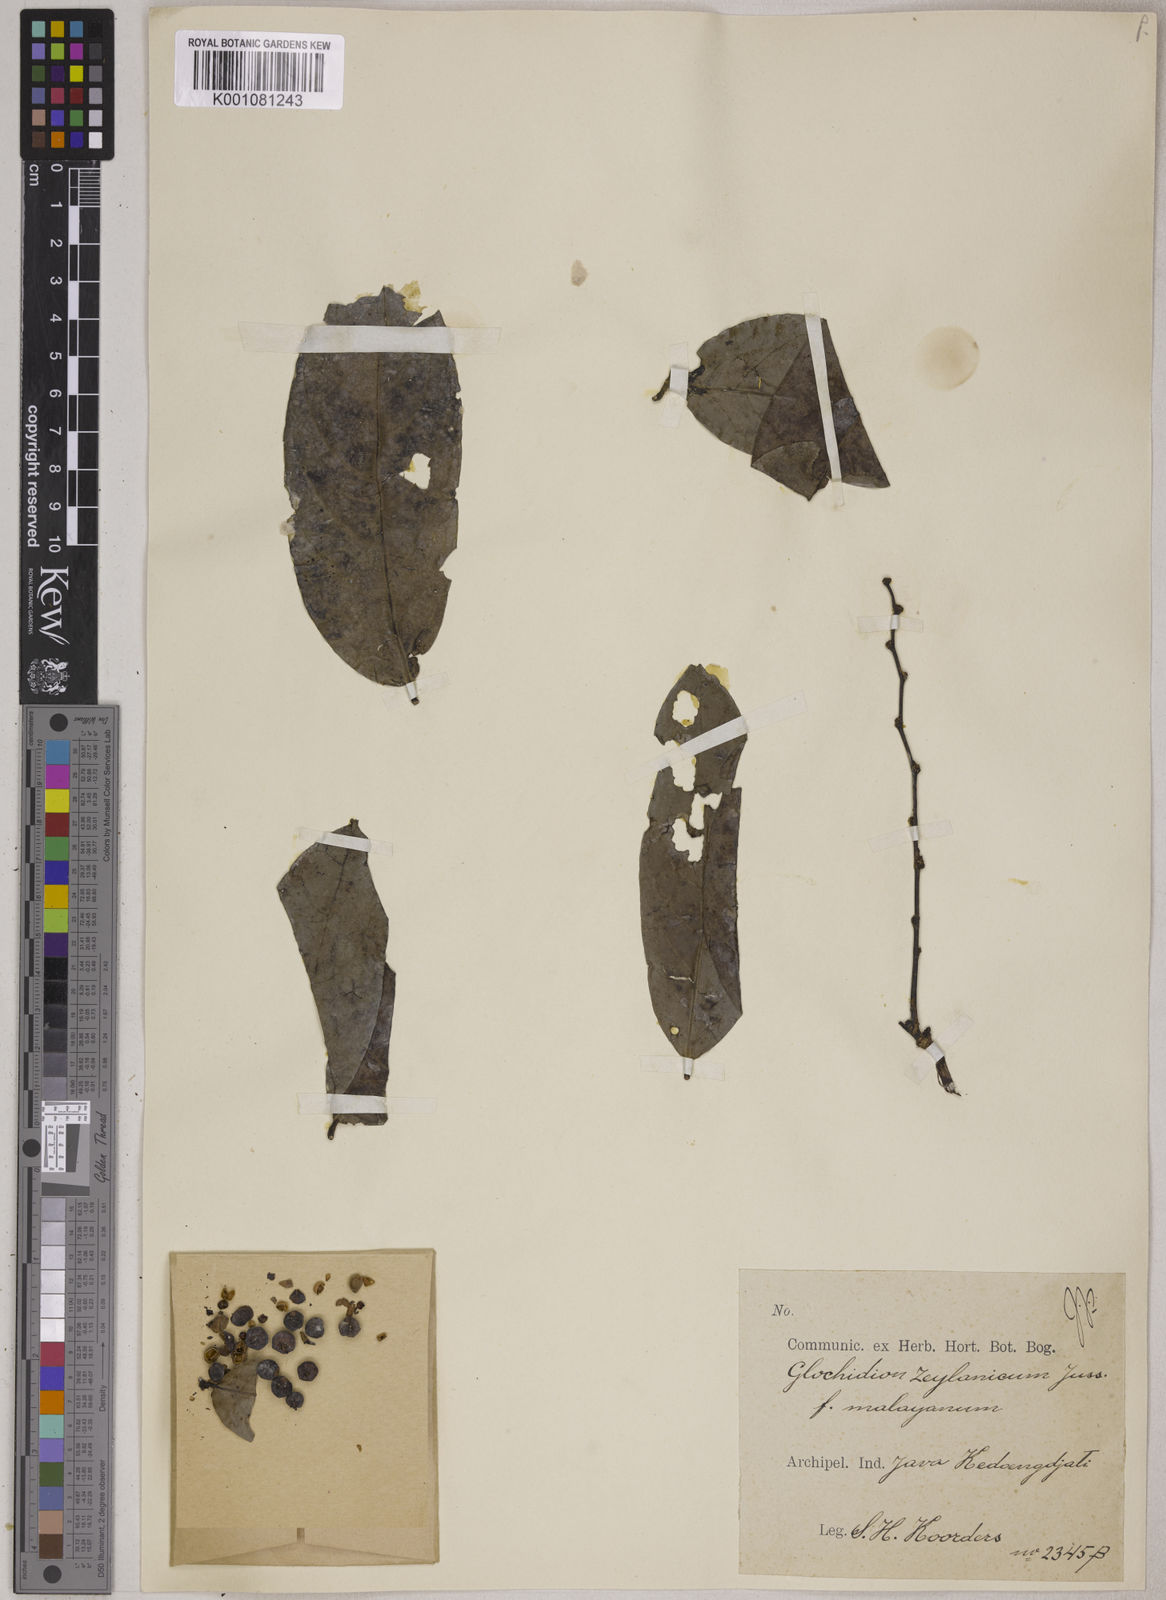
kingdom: Plantae
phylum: Tracheophyta
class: Magnoliopsida
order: Malpighiales
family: Phyllanthaceae
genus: Glochidion
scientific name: Glochidion zeylanicum
